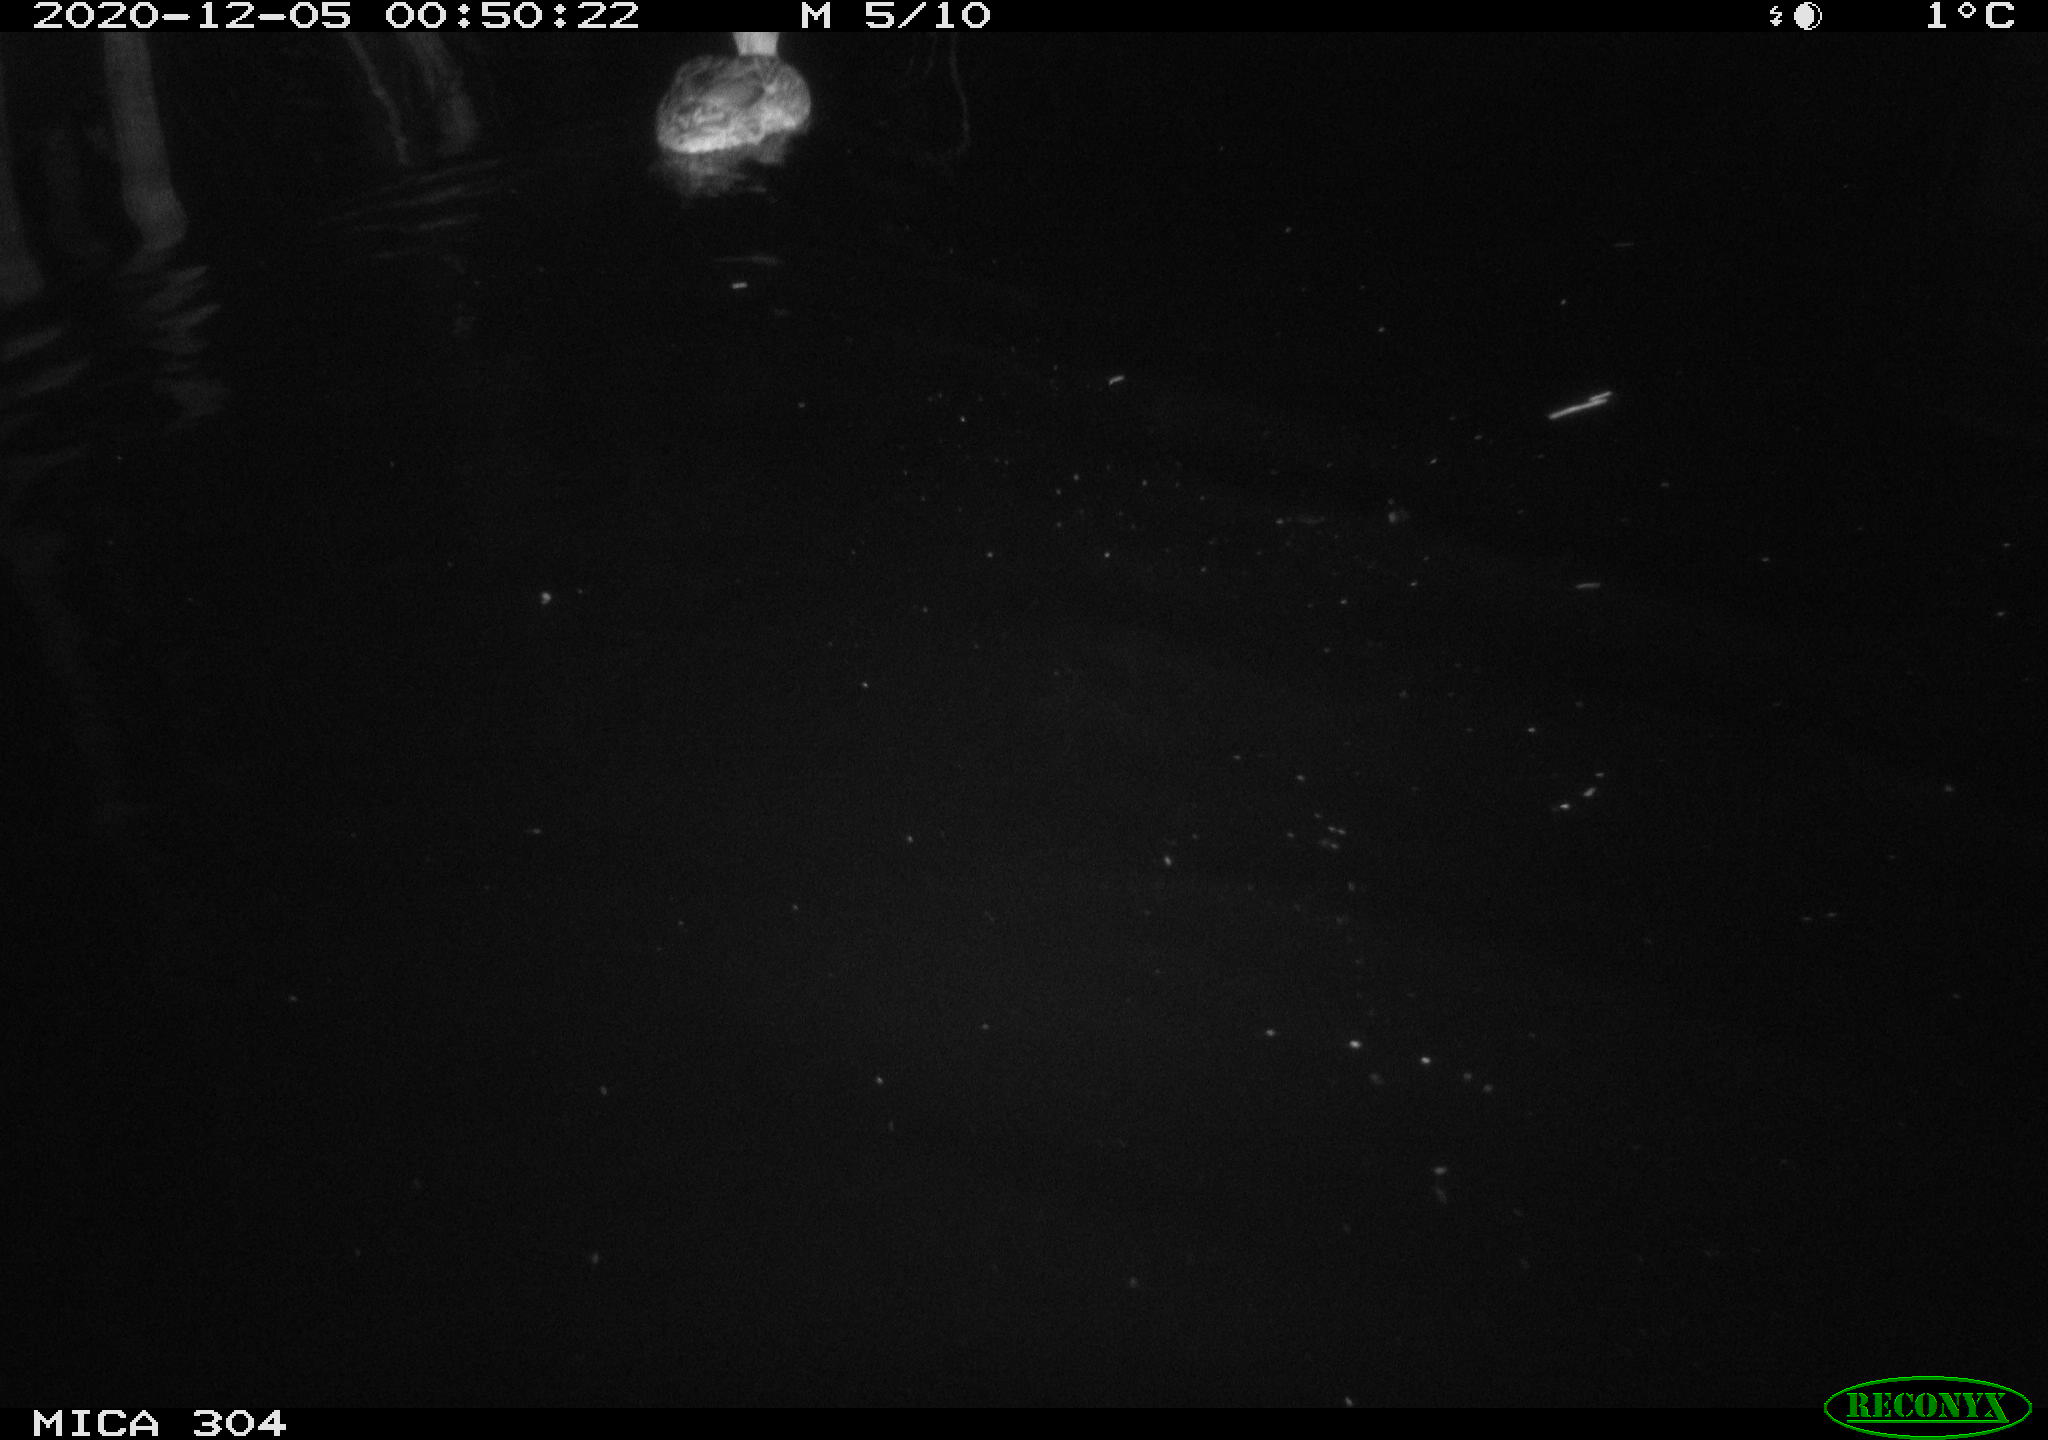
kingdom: Animalia
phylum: Chordata
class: Aves
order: Anseriformes
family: Anatidae
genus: Anas
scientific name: Anas platyrhynchos
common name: Mallard
